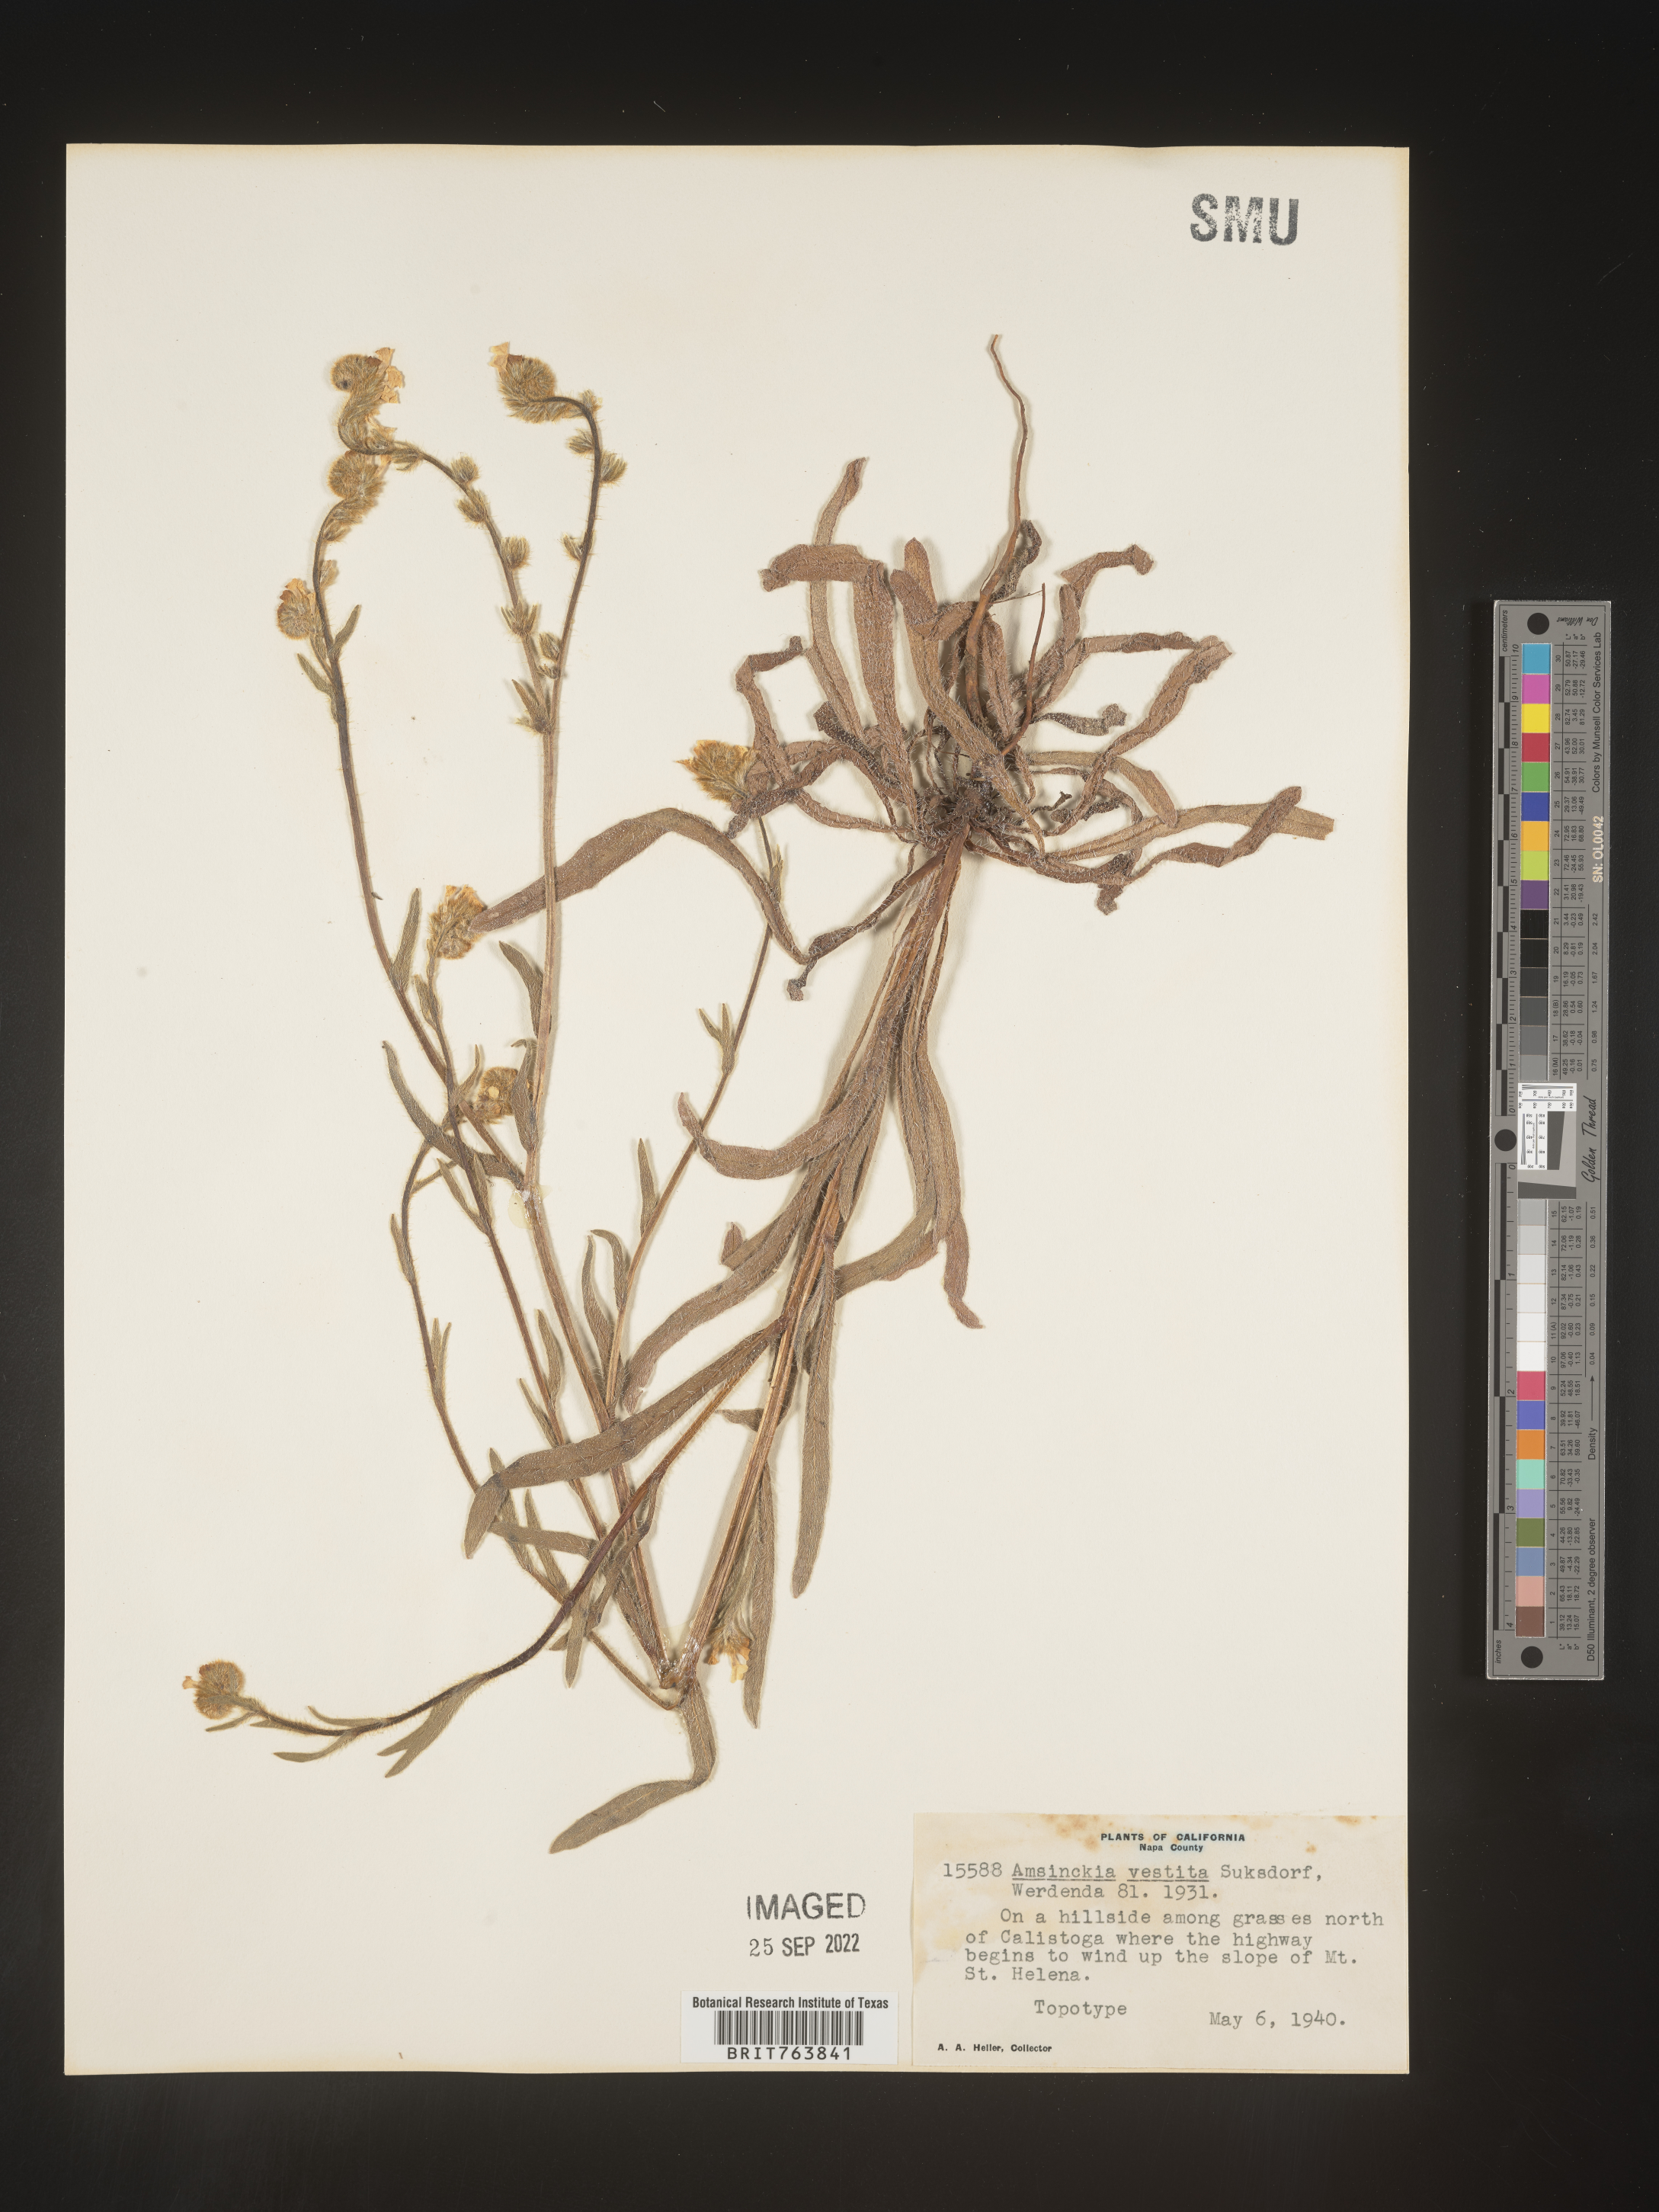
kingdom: Plantae
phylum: Tracheophyta
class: Magnoliopsida
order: Boraginales
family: Boraginaceae
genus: Amsinckia
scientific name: Amsinckia
